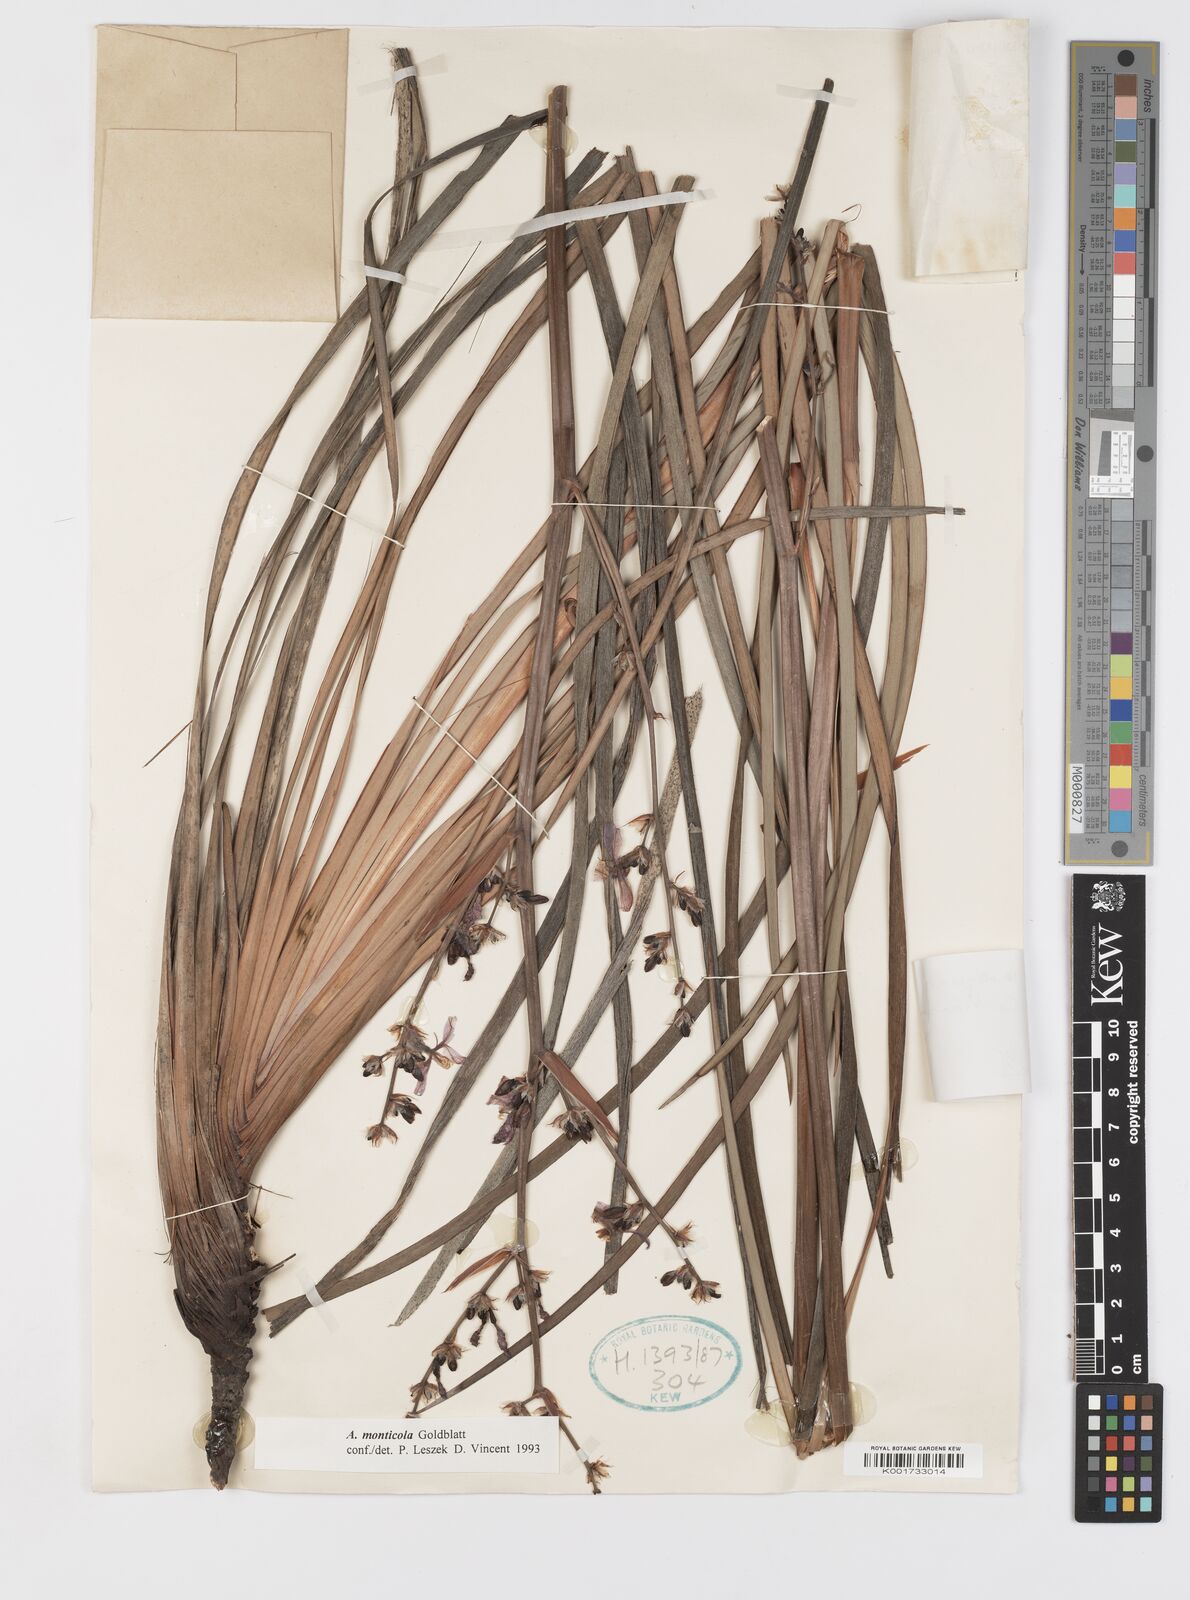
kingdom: Plantae
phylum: Tracheophyta
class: Liliopsida
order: Asparagales
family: Iridaceae
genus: Aristea
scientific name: Aristea monticola
